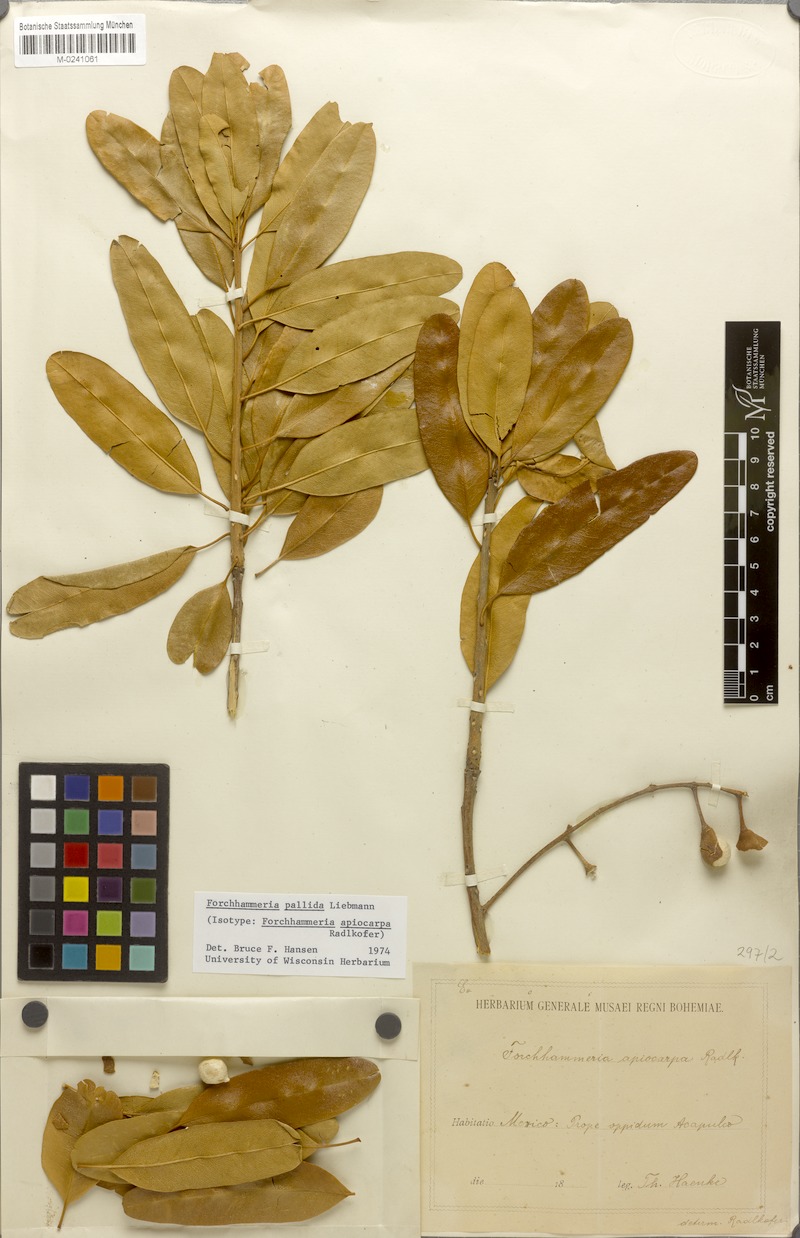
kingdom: Plantae
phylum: Tracheophyta
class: Magnoliopsida
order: Brassicales
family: Stixaceae
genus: Forchhammeria
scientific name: Forchhammeria pallida
